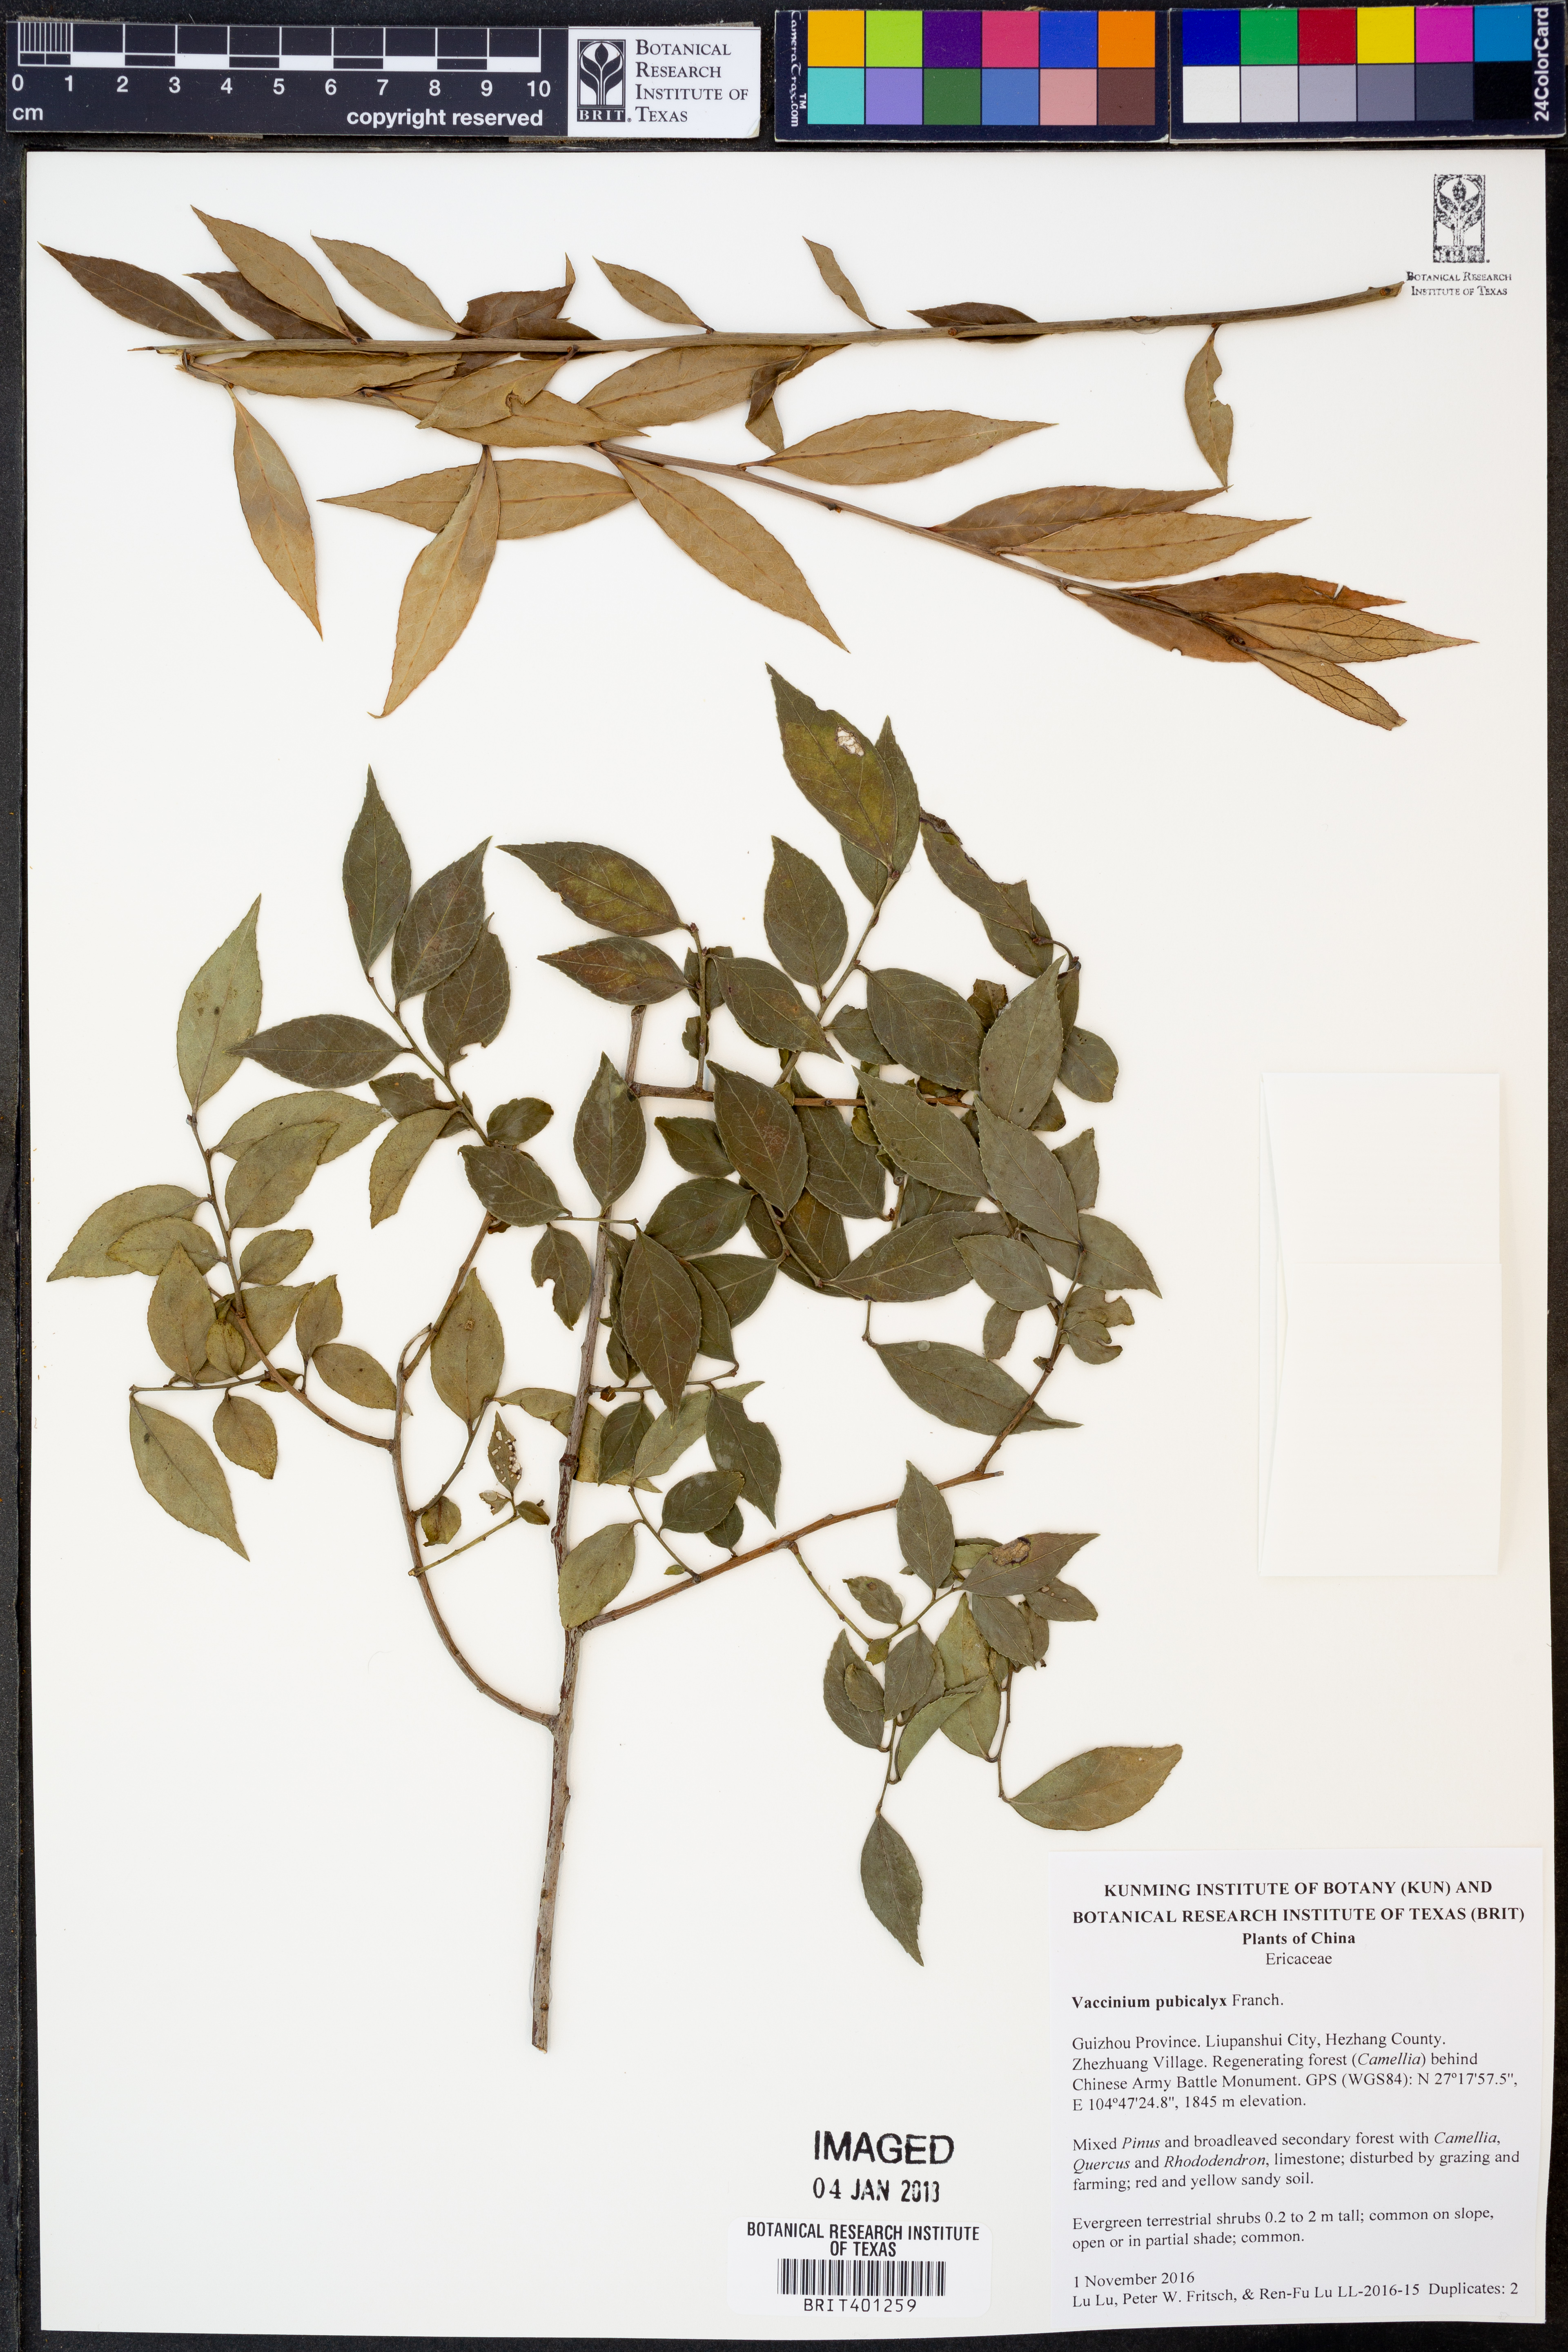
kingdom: Plantae
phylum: Tracheophyta
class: Magnoliopsida
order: Ericales
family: Ericaceae
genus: Vaccinium
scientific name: Vaccinium pubicalyx
